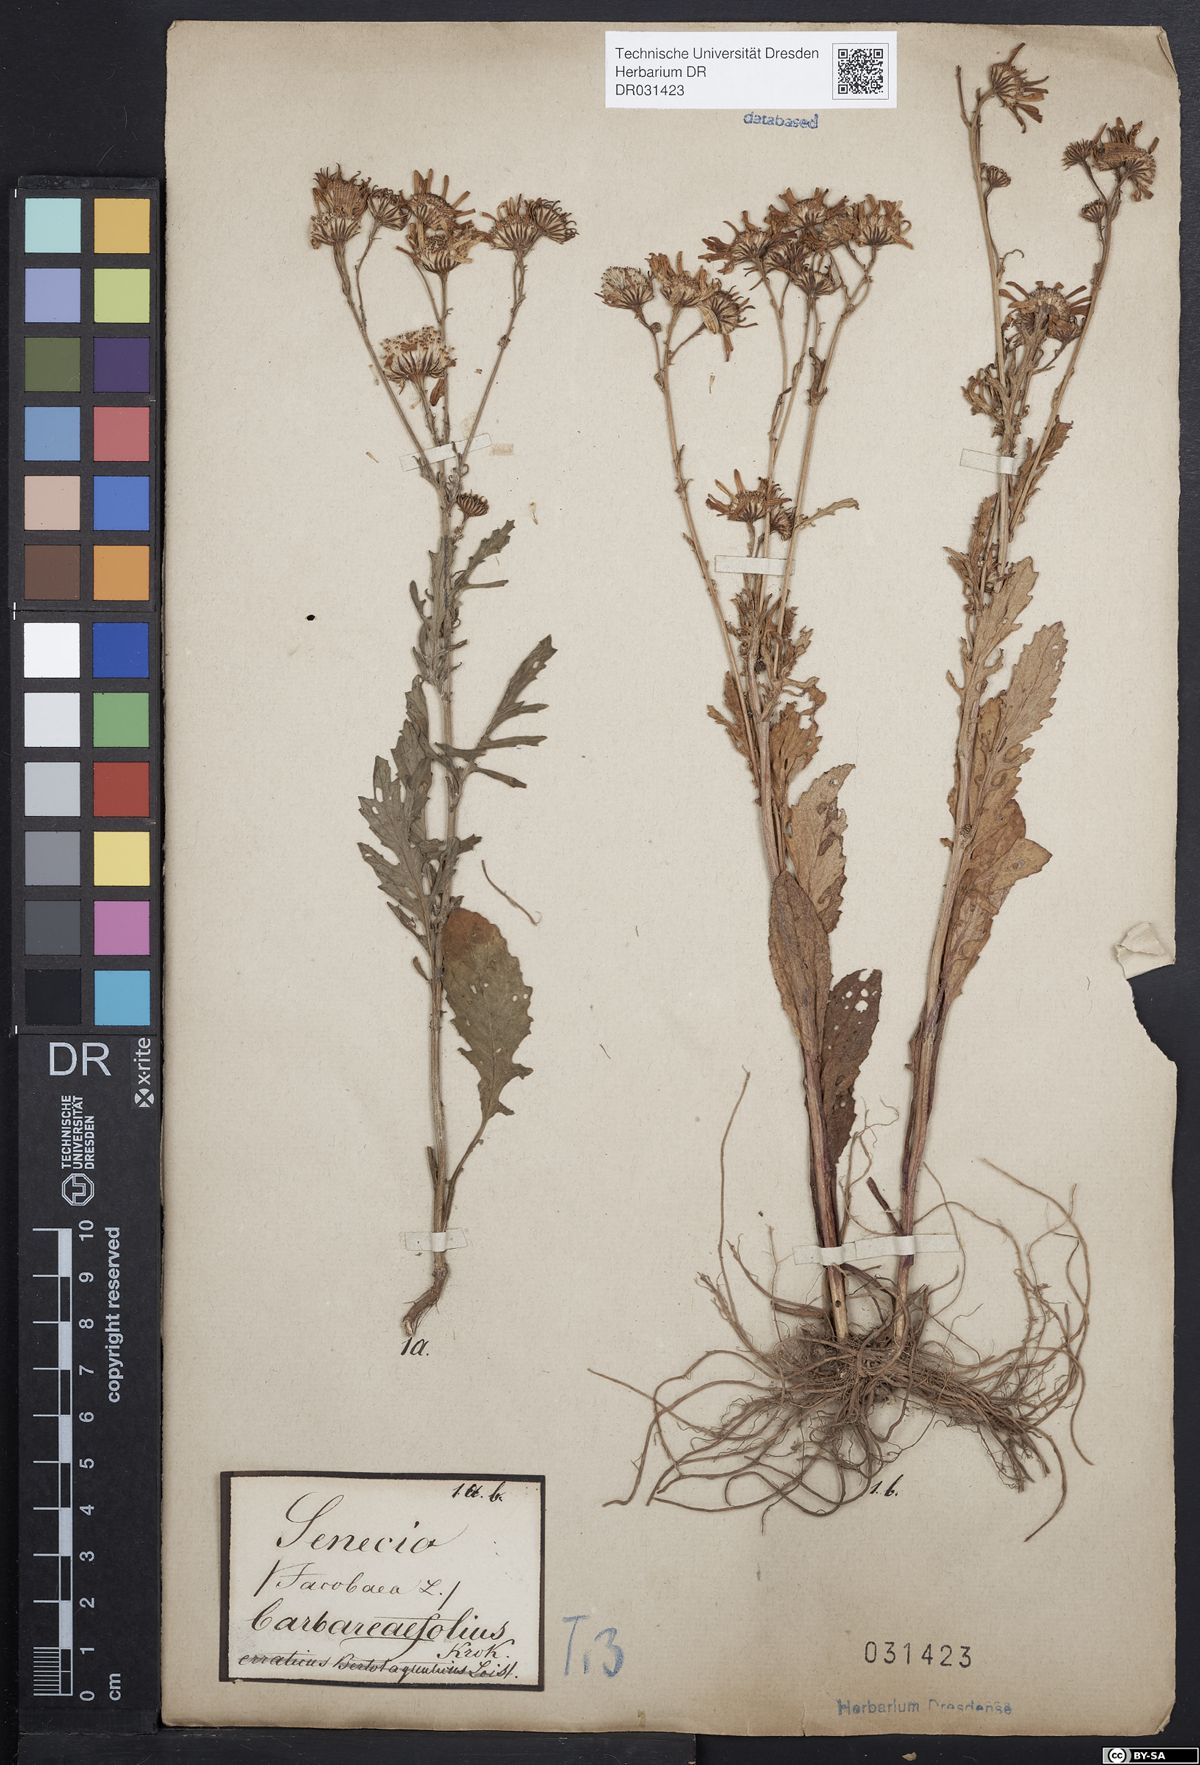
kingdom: Plantae
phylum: Tracheophyta
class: Magnoliopsida
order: Asterales
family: Asteraceae
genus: Jacobaea
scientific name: Jacobaea aquatica
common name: Water ragwort
